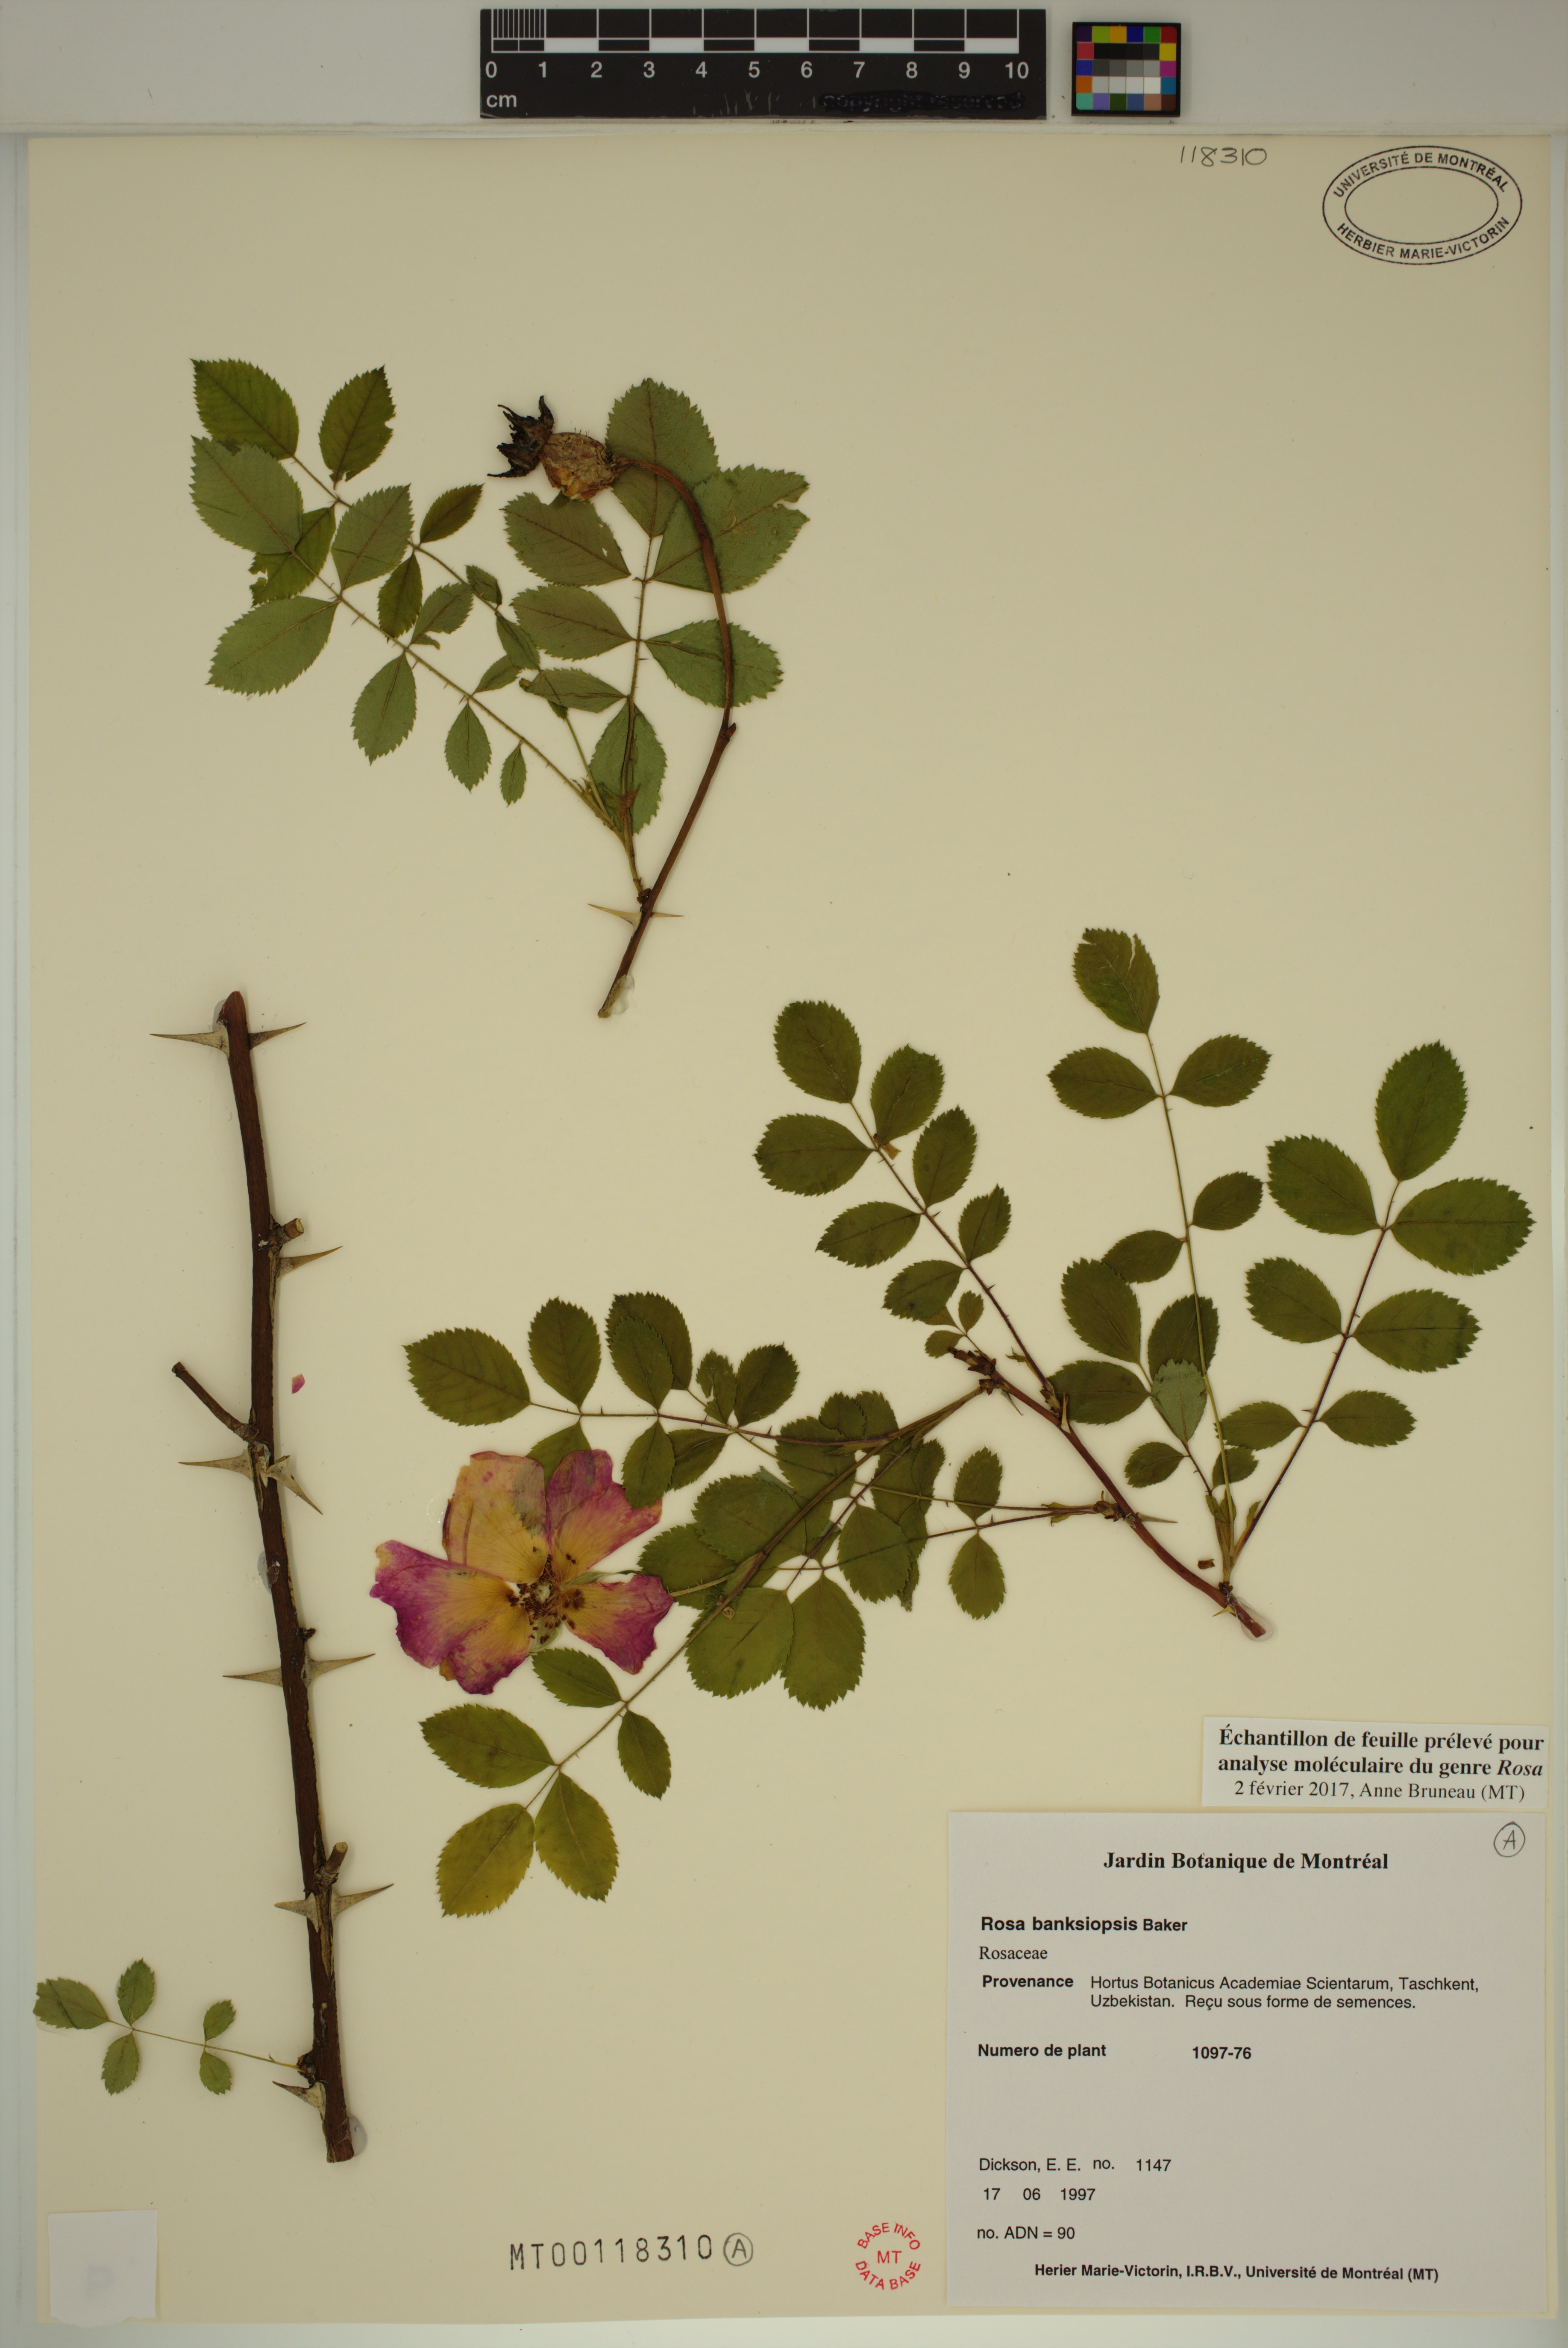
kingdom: Plantae
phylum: Tracheophyta
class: Magnoliopsida
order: Rosales
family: Rosaceae
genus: Rosa
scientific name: Rosa banksiopsis
